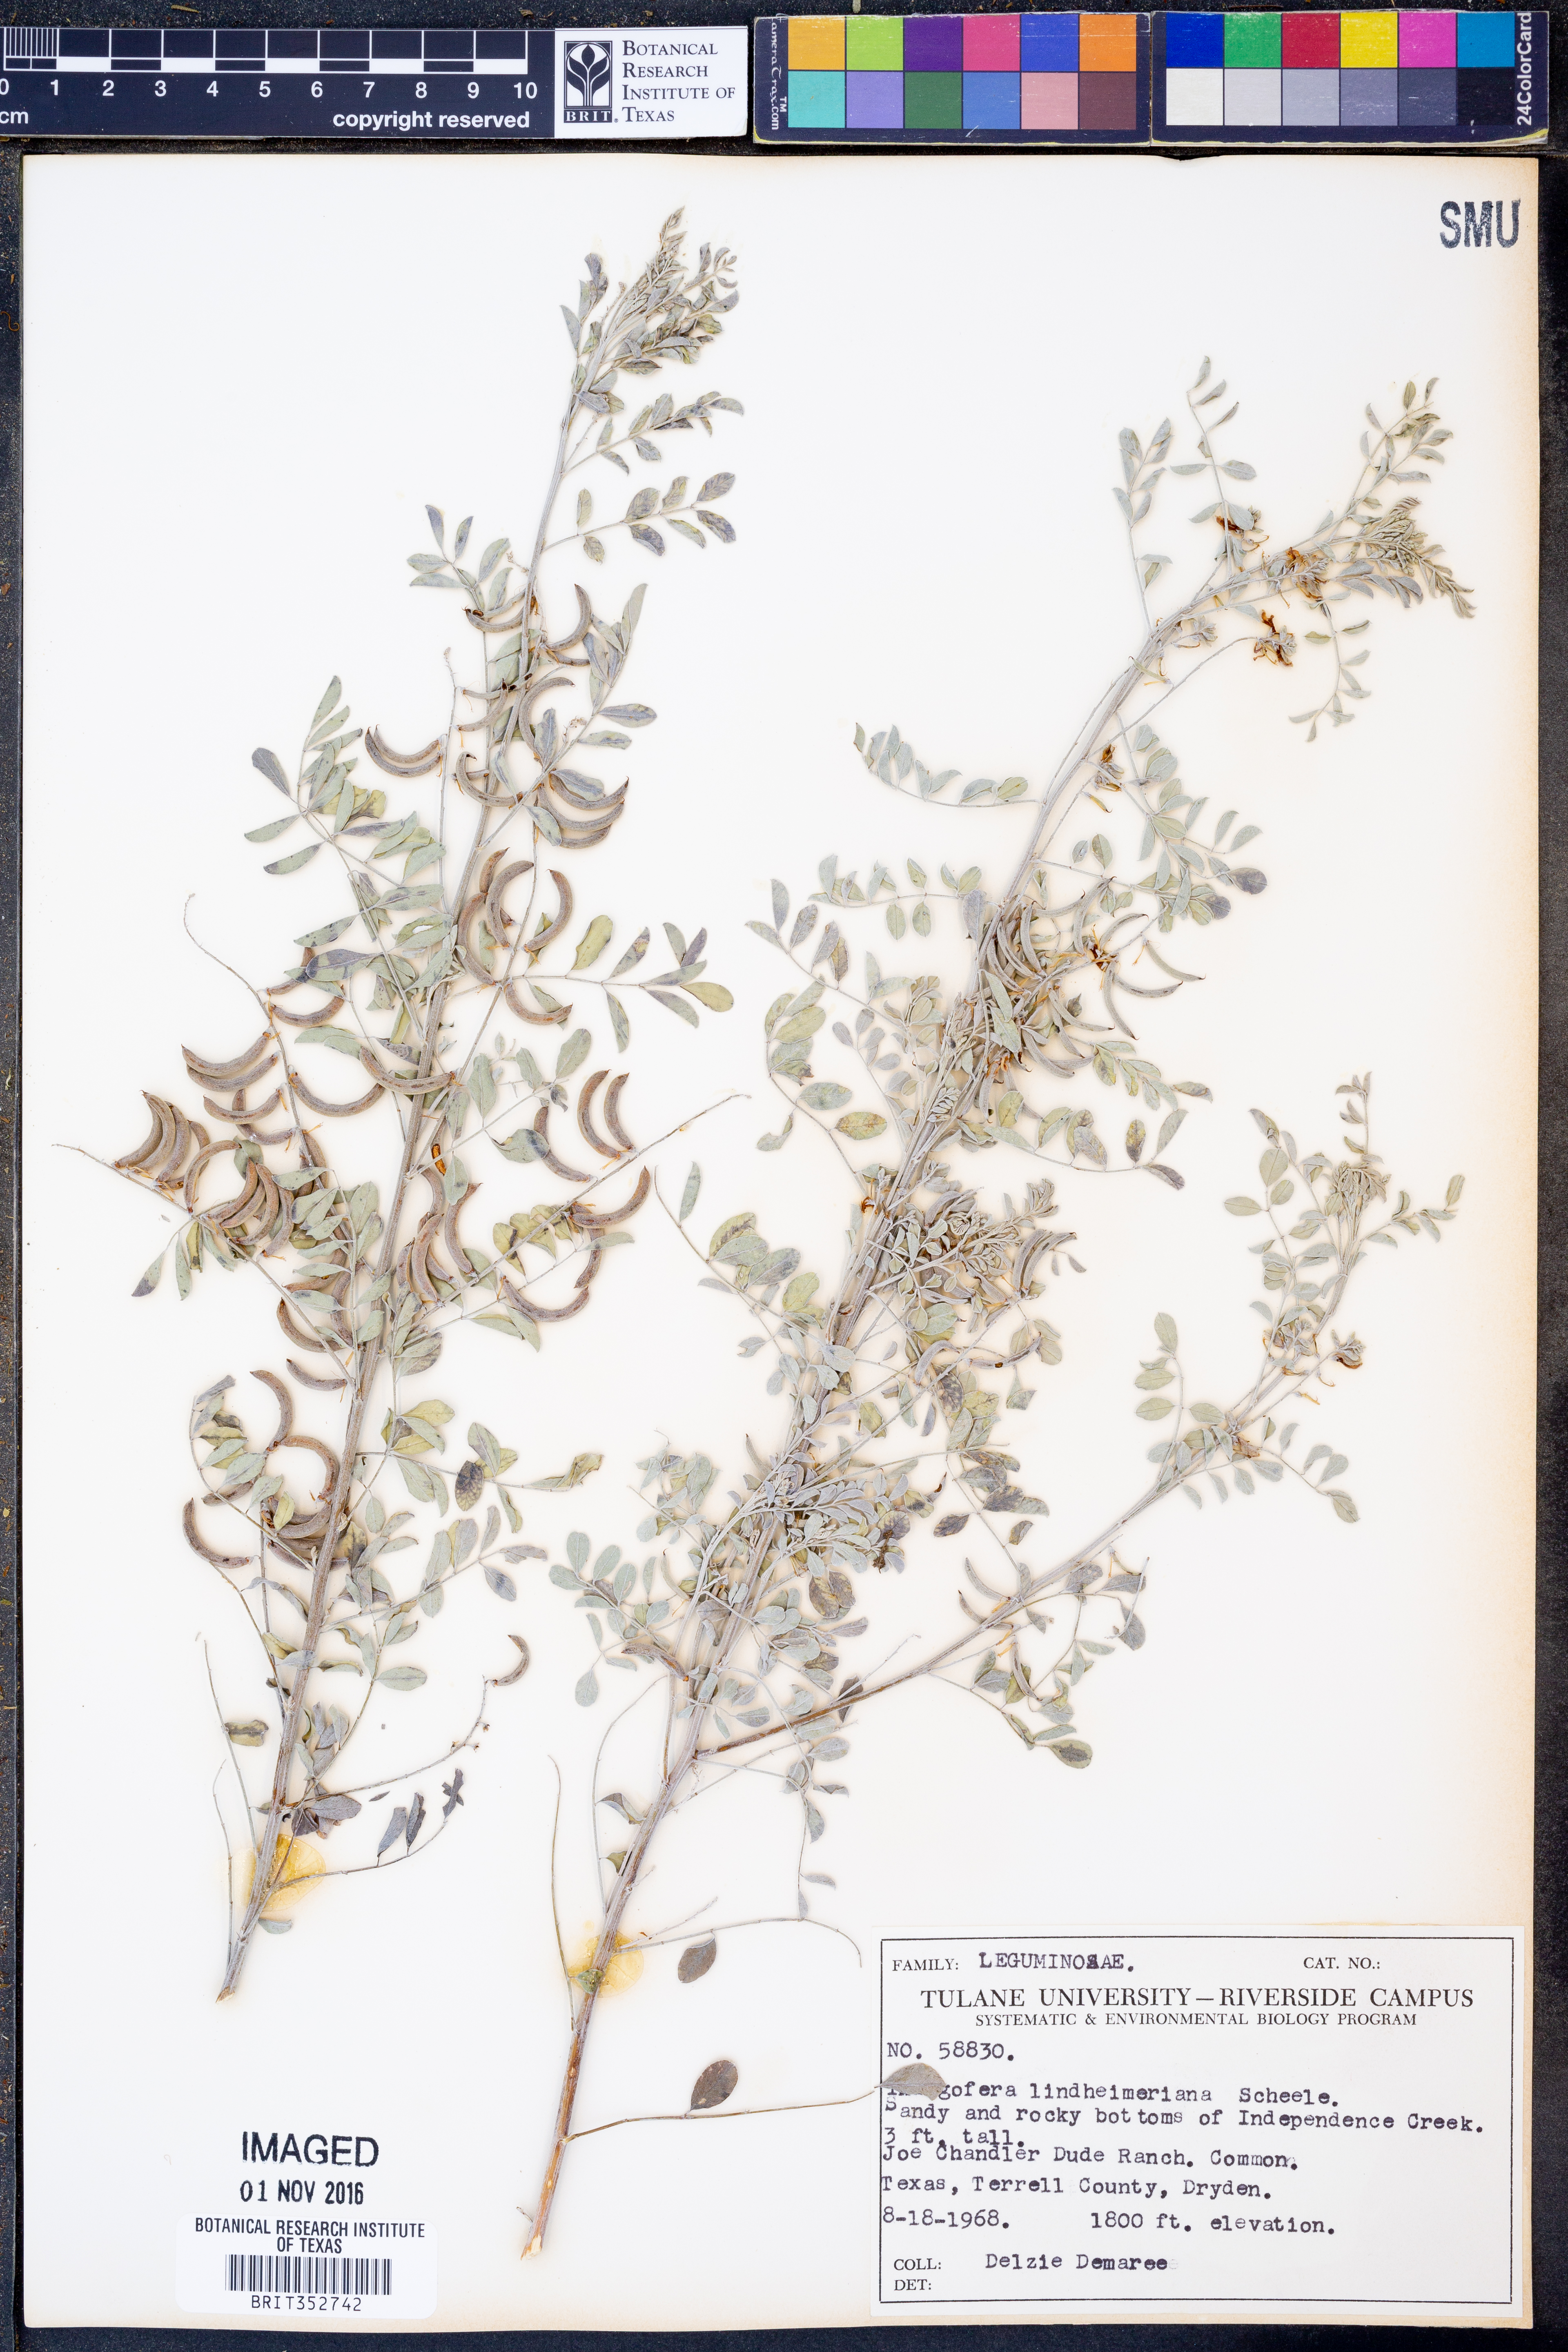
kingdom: Plantae
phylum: Tracheophyta
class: Magnoliopsida
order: Fabales
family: Fabaceae
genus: Indigofera
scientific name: Indigofera lindheimeriana
